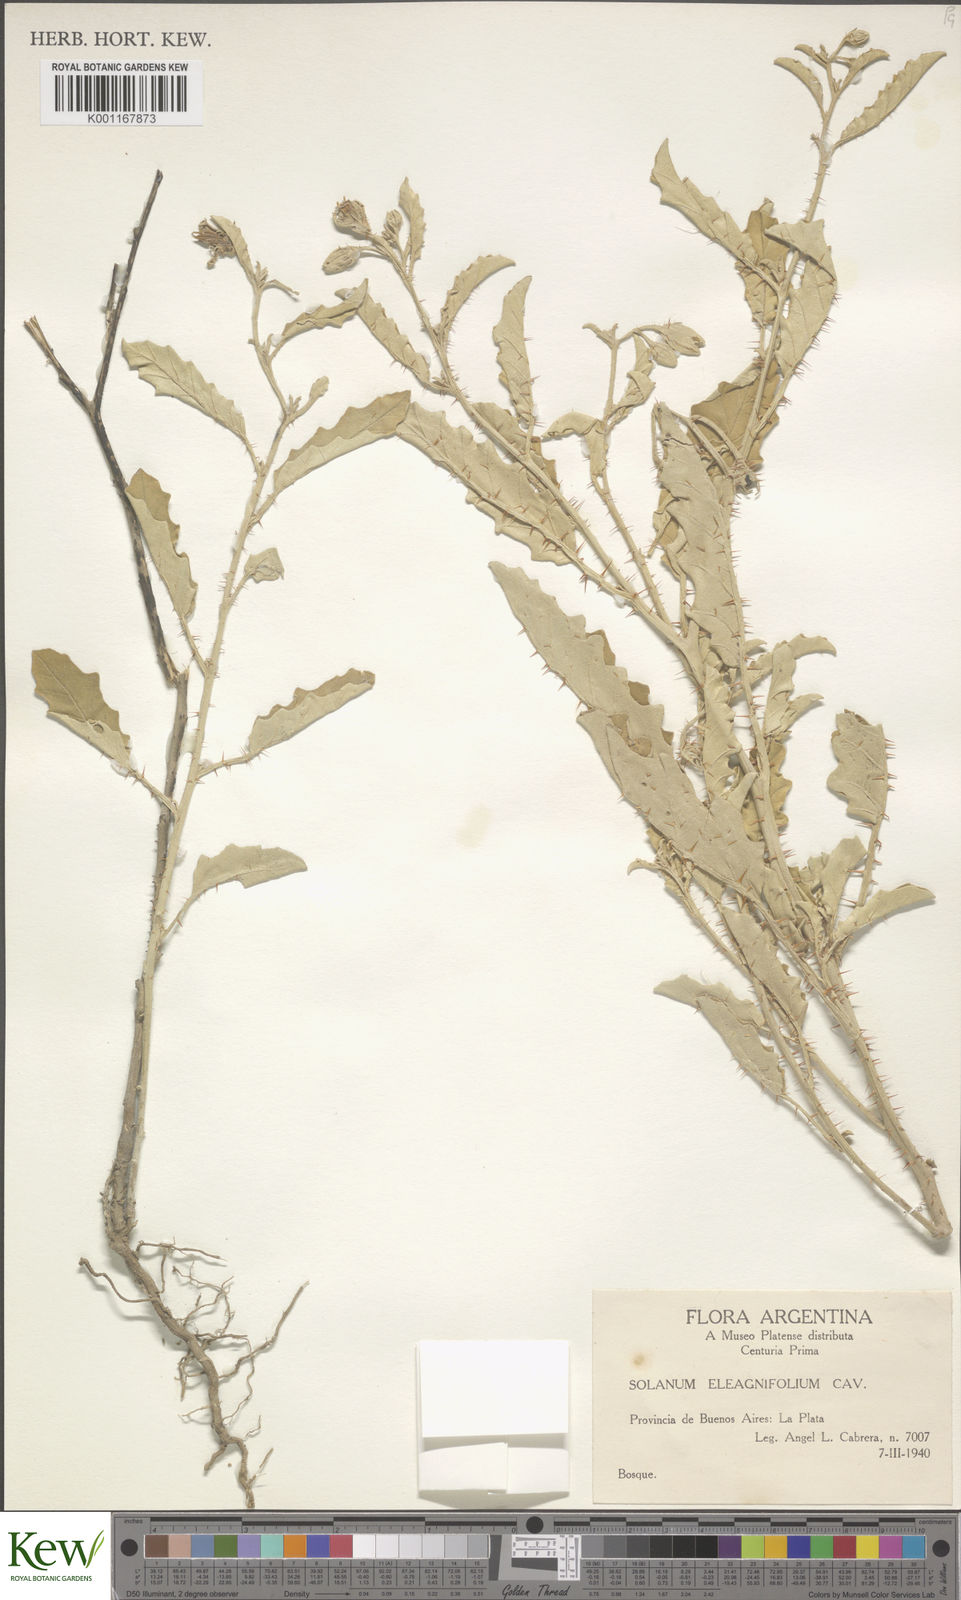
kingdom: Plantae
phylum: Tracheophyta
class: Magnoliopsida
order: Solanales
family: Solanaceae
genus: Solanum
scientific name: Solanum elaeagnifolium
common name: Silverleaf nightshade
